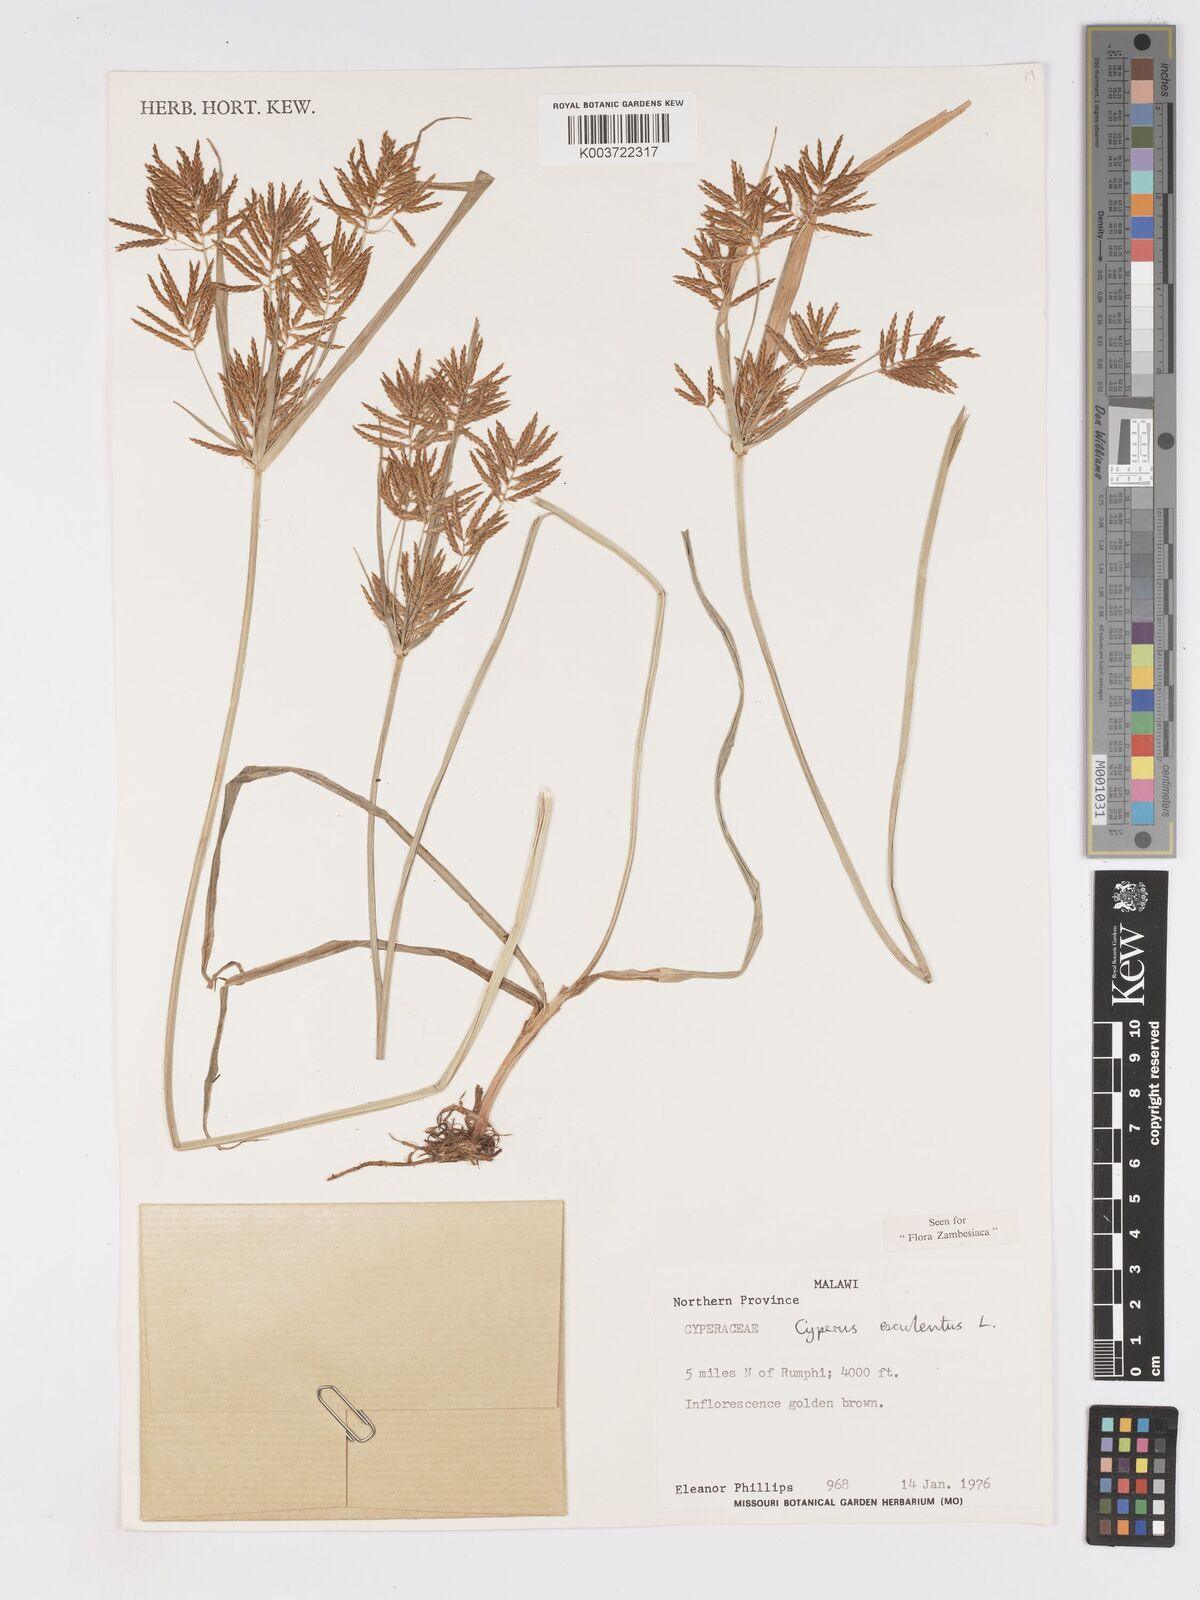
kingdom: Plantae
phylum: Tracheophyta
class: Liliopsida
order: Poales
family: Cyperaceae
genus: Cyperus
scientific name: Cyperus esculentus
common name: Yellow nutsedge
